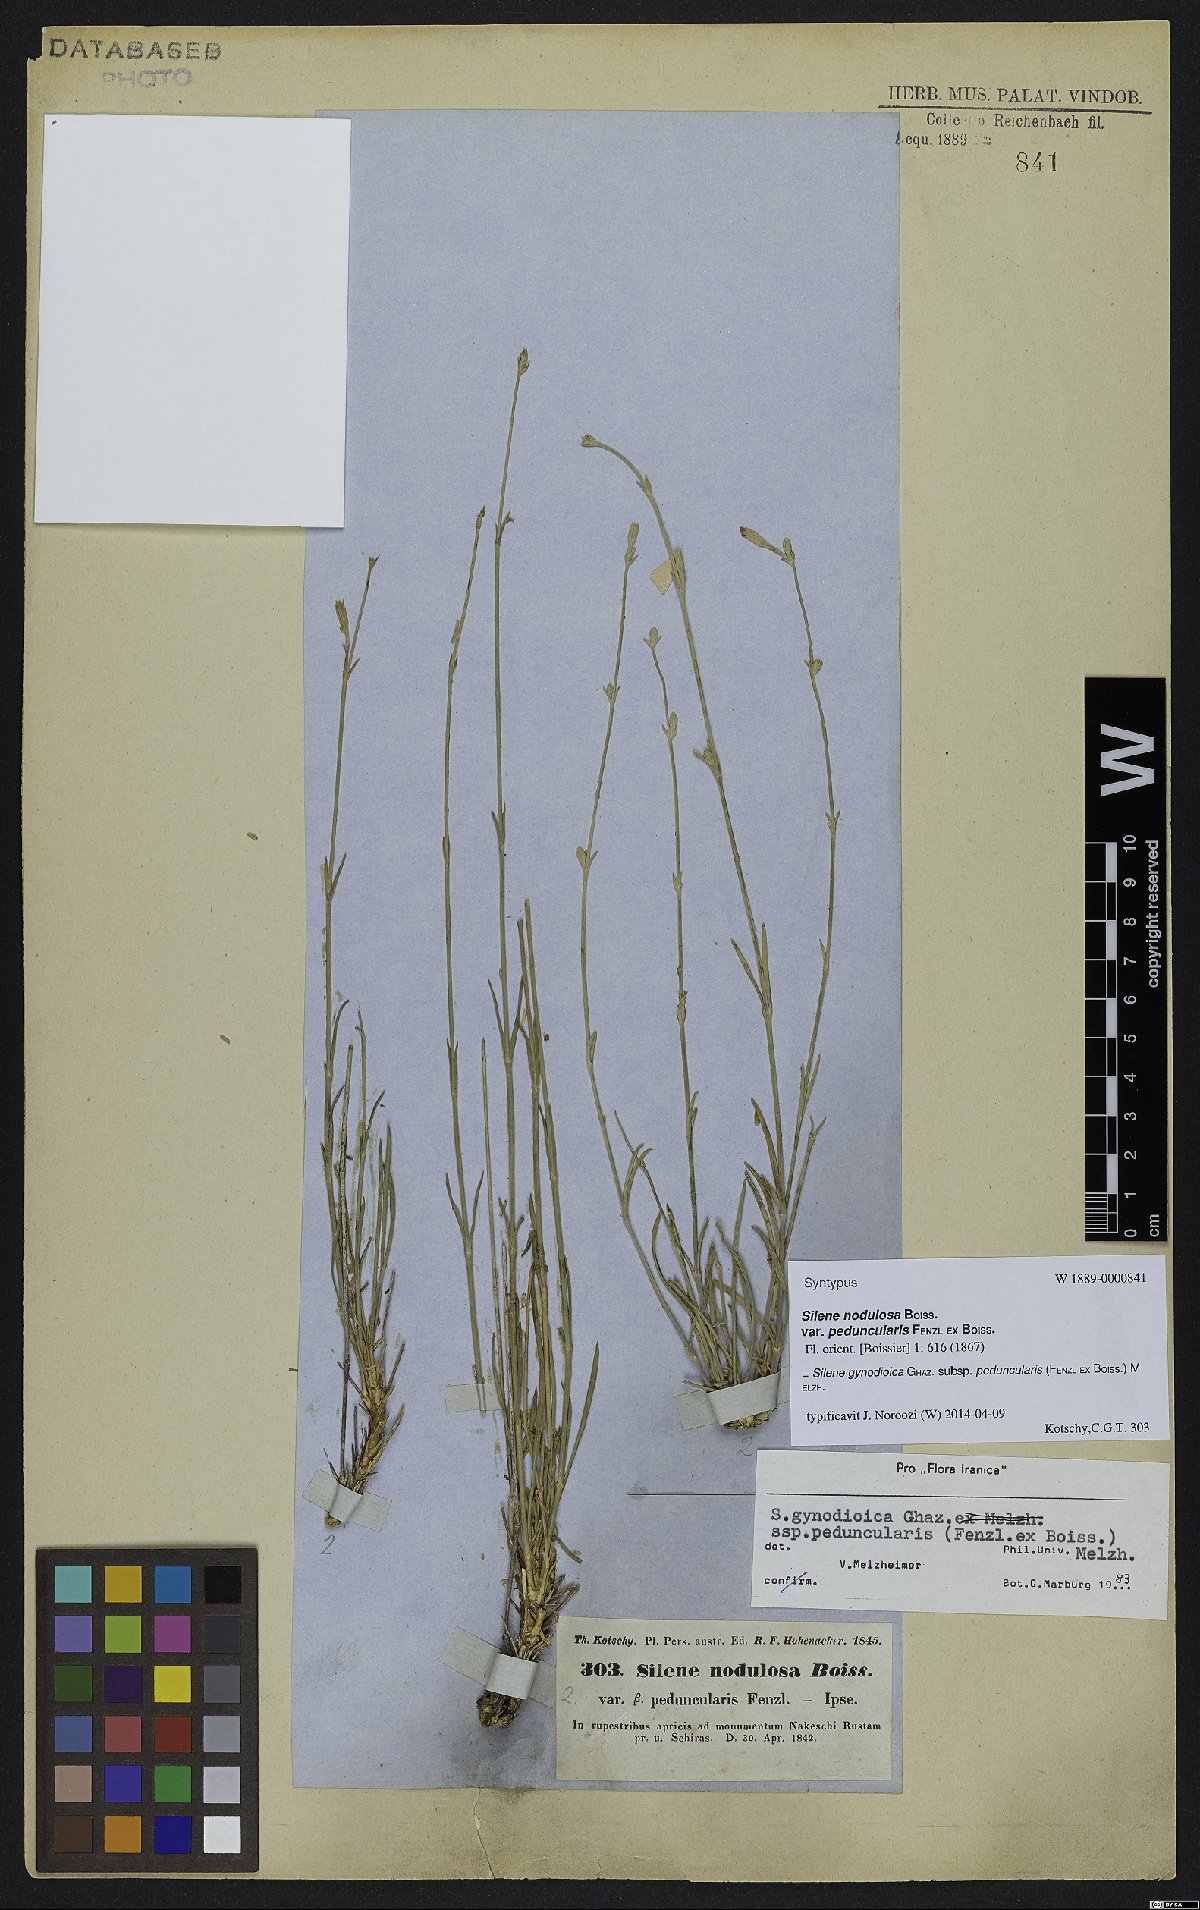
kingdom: Plantae
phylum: Tracheophyta
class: Magnoliopsida
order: Caryophyllales
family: Caryophyllaceae
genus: Silene
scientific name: Silene behboudiana
